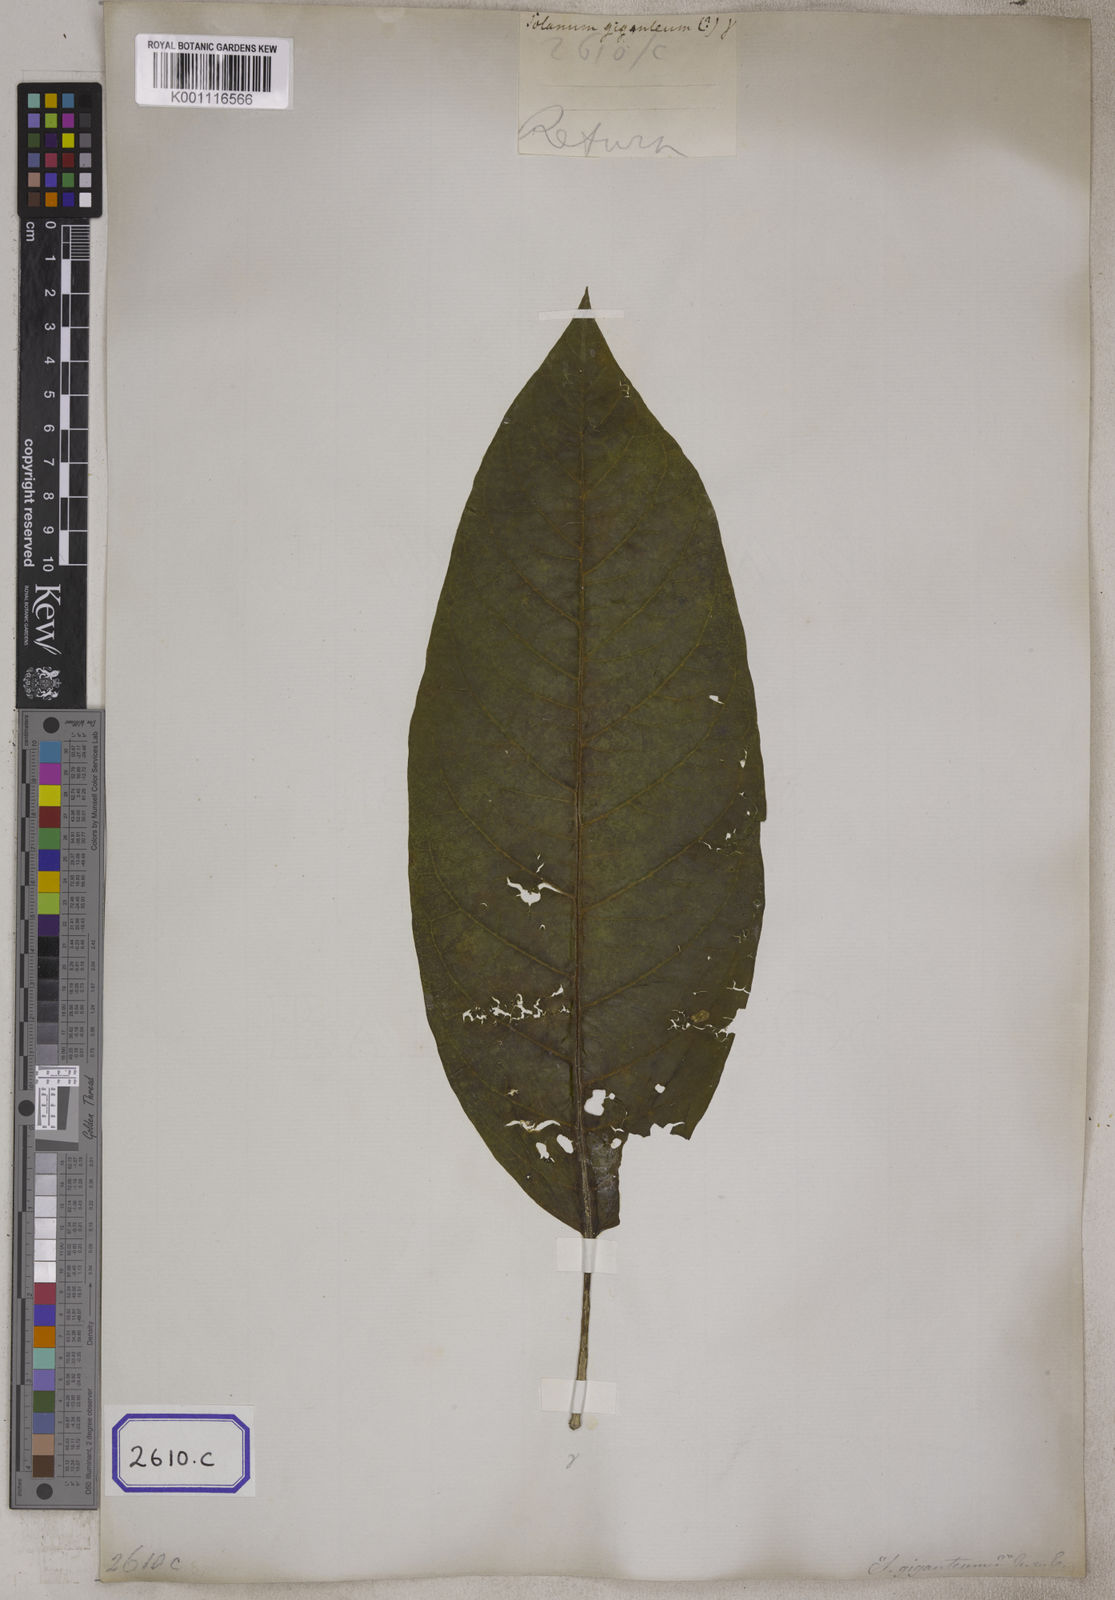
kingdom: Plantae
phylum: Tracheophyta
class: Magnoliopsida
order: Solanales
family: Solanaceae
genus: Solanum
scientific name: Solanum giganteum
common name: Healing-leaf-tree
